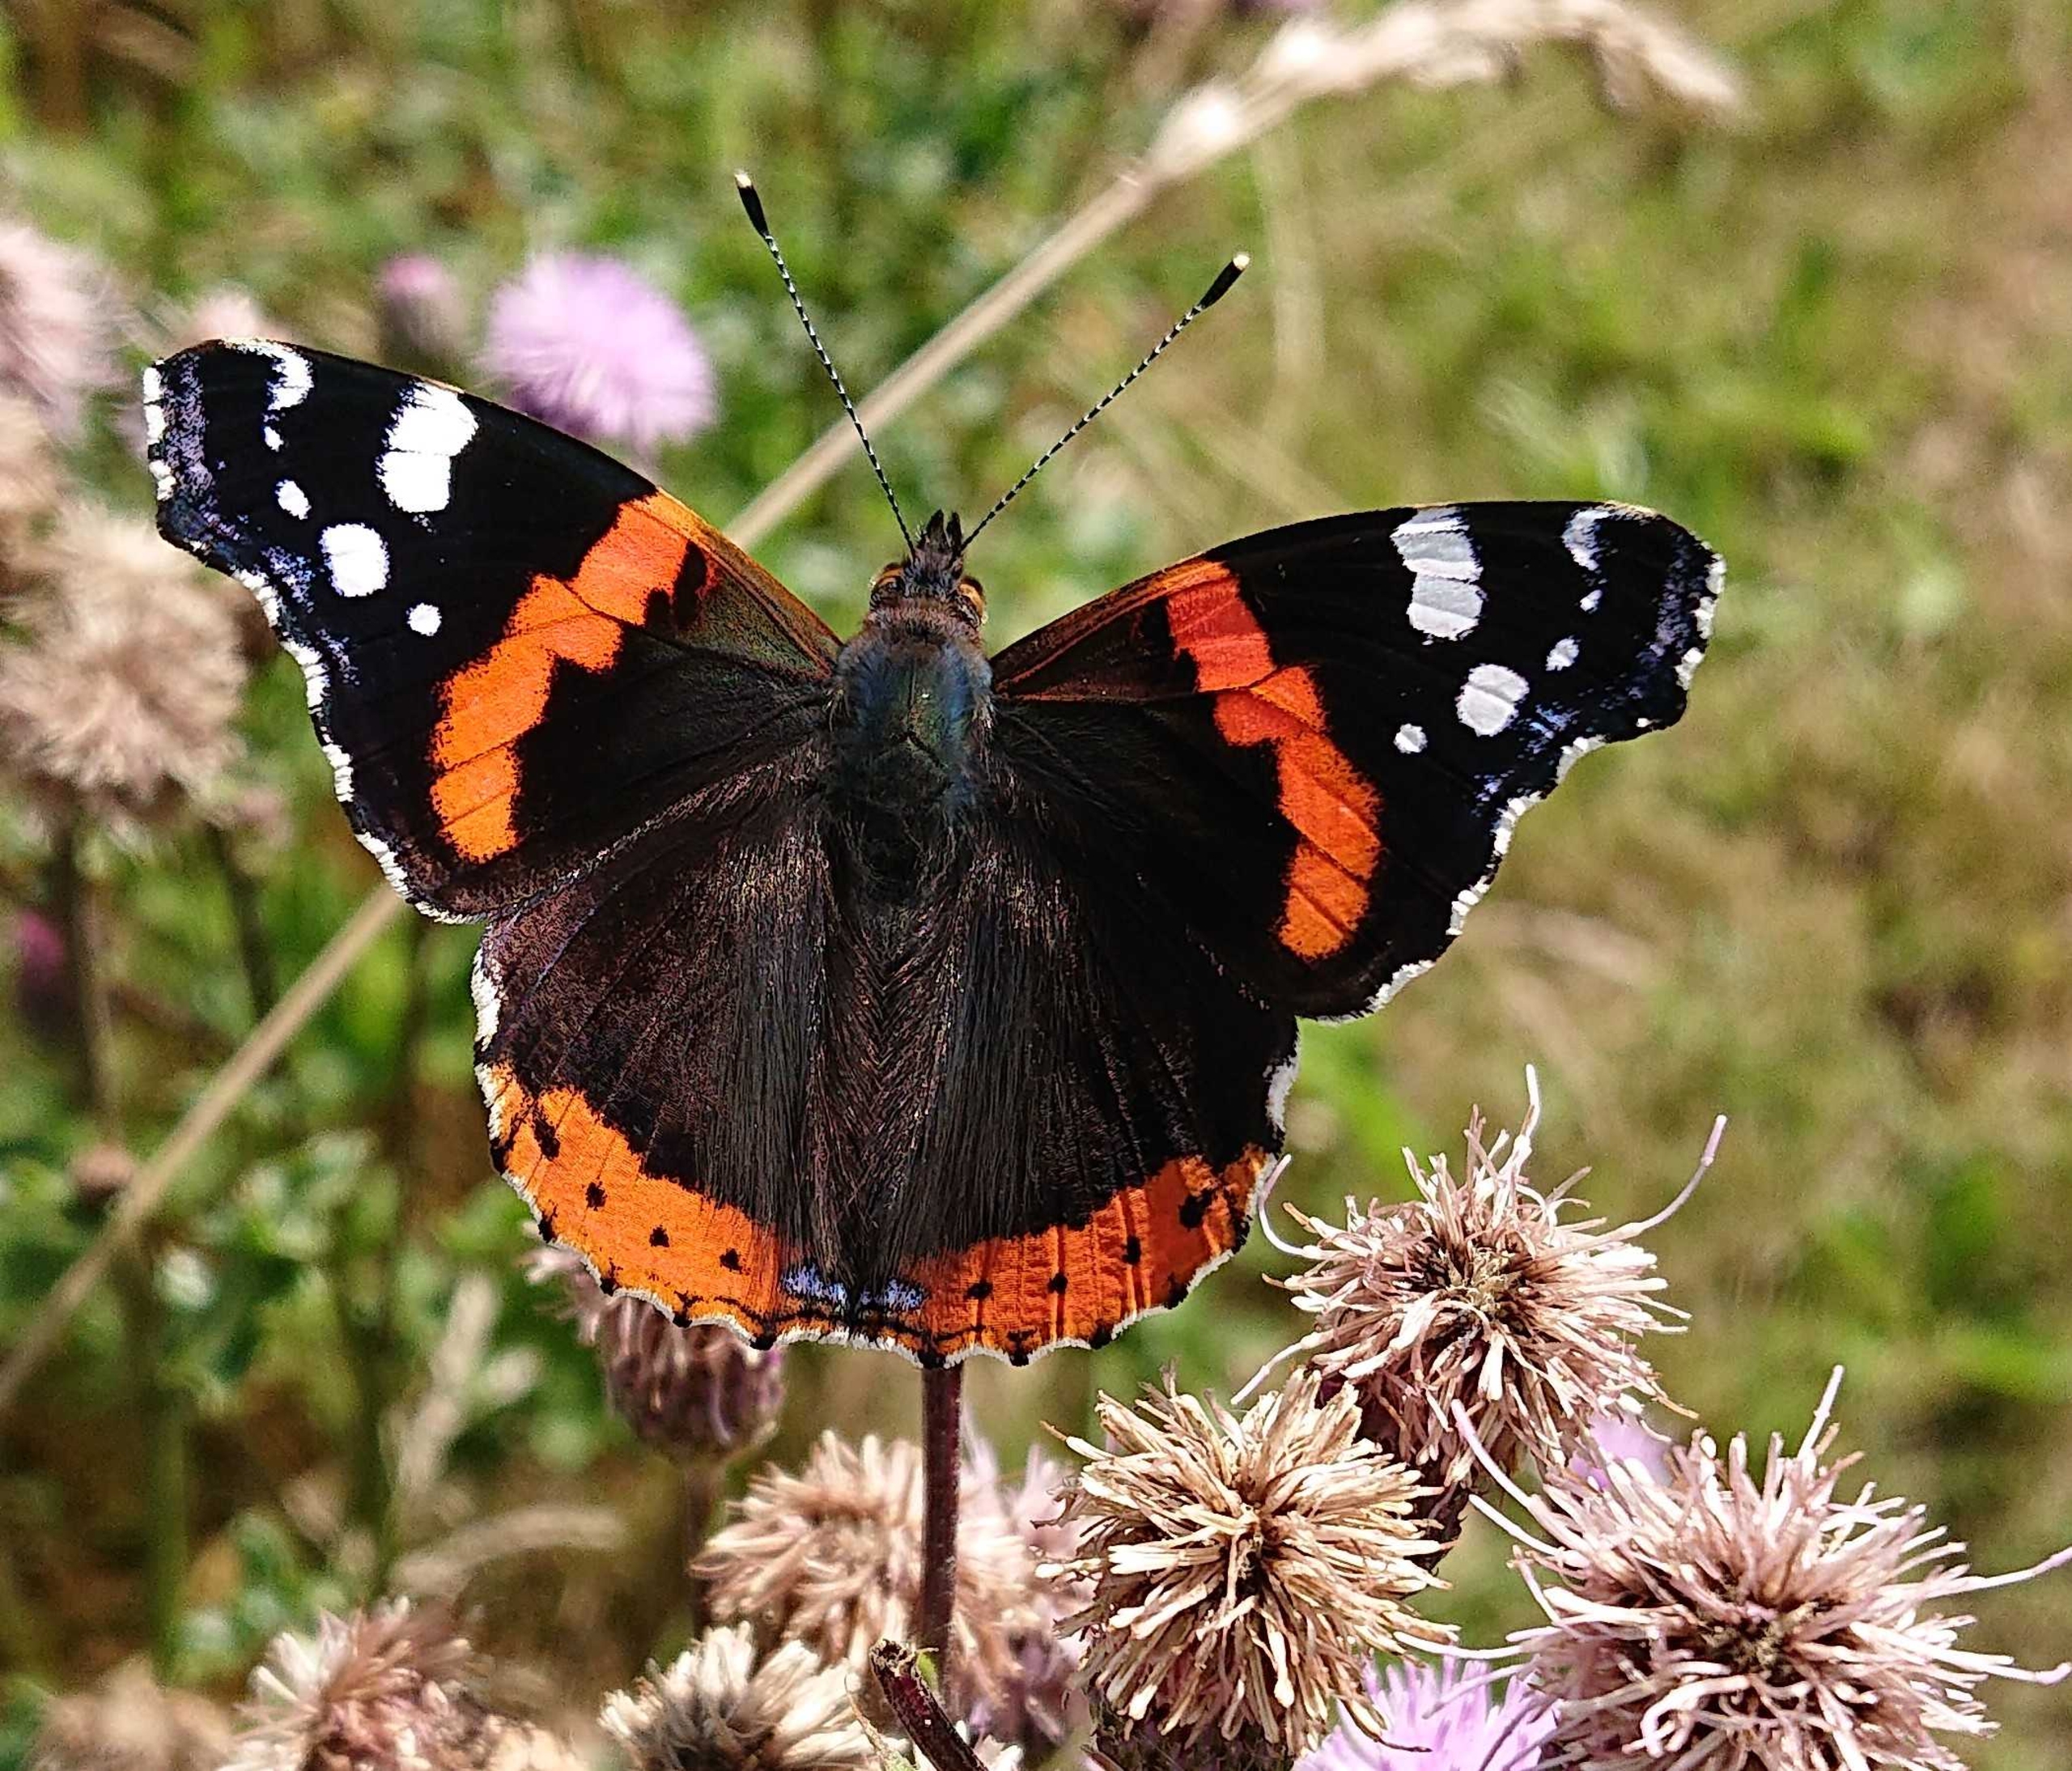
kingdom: Animalia
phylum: Arthropoda
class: Insecta
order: Lepidoptera
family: Nymphalidae
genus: Vanessa
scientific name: Vanessa atalanta
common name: Admiral
